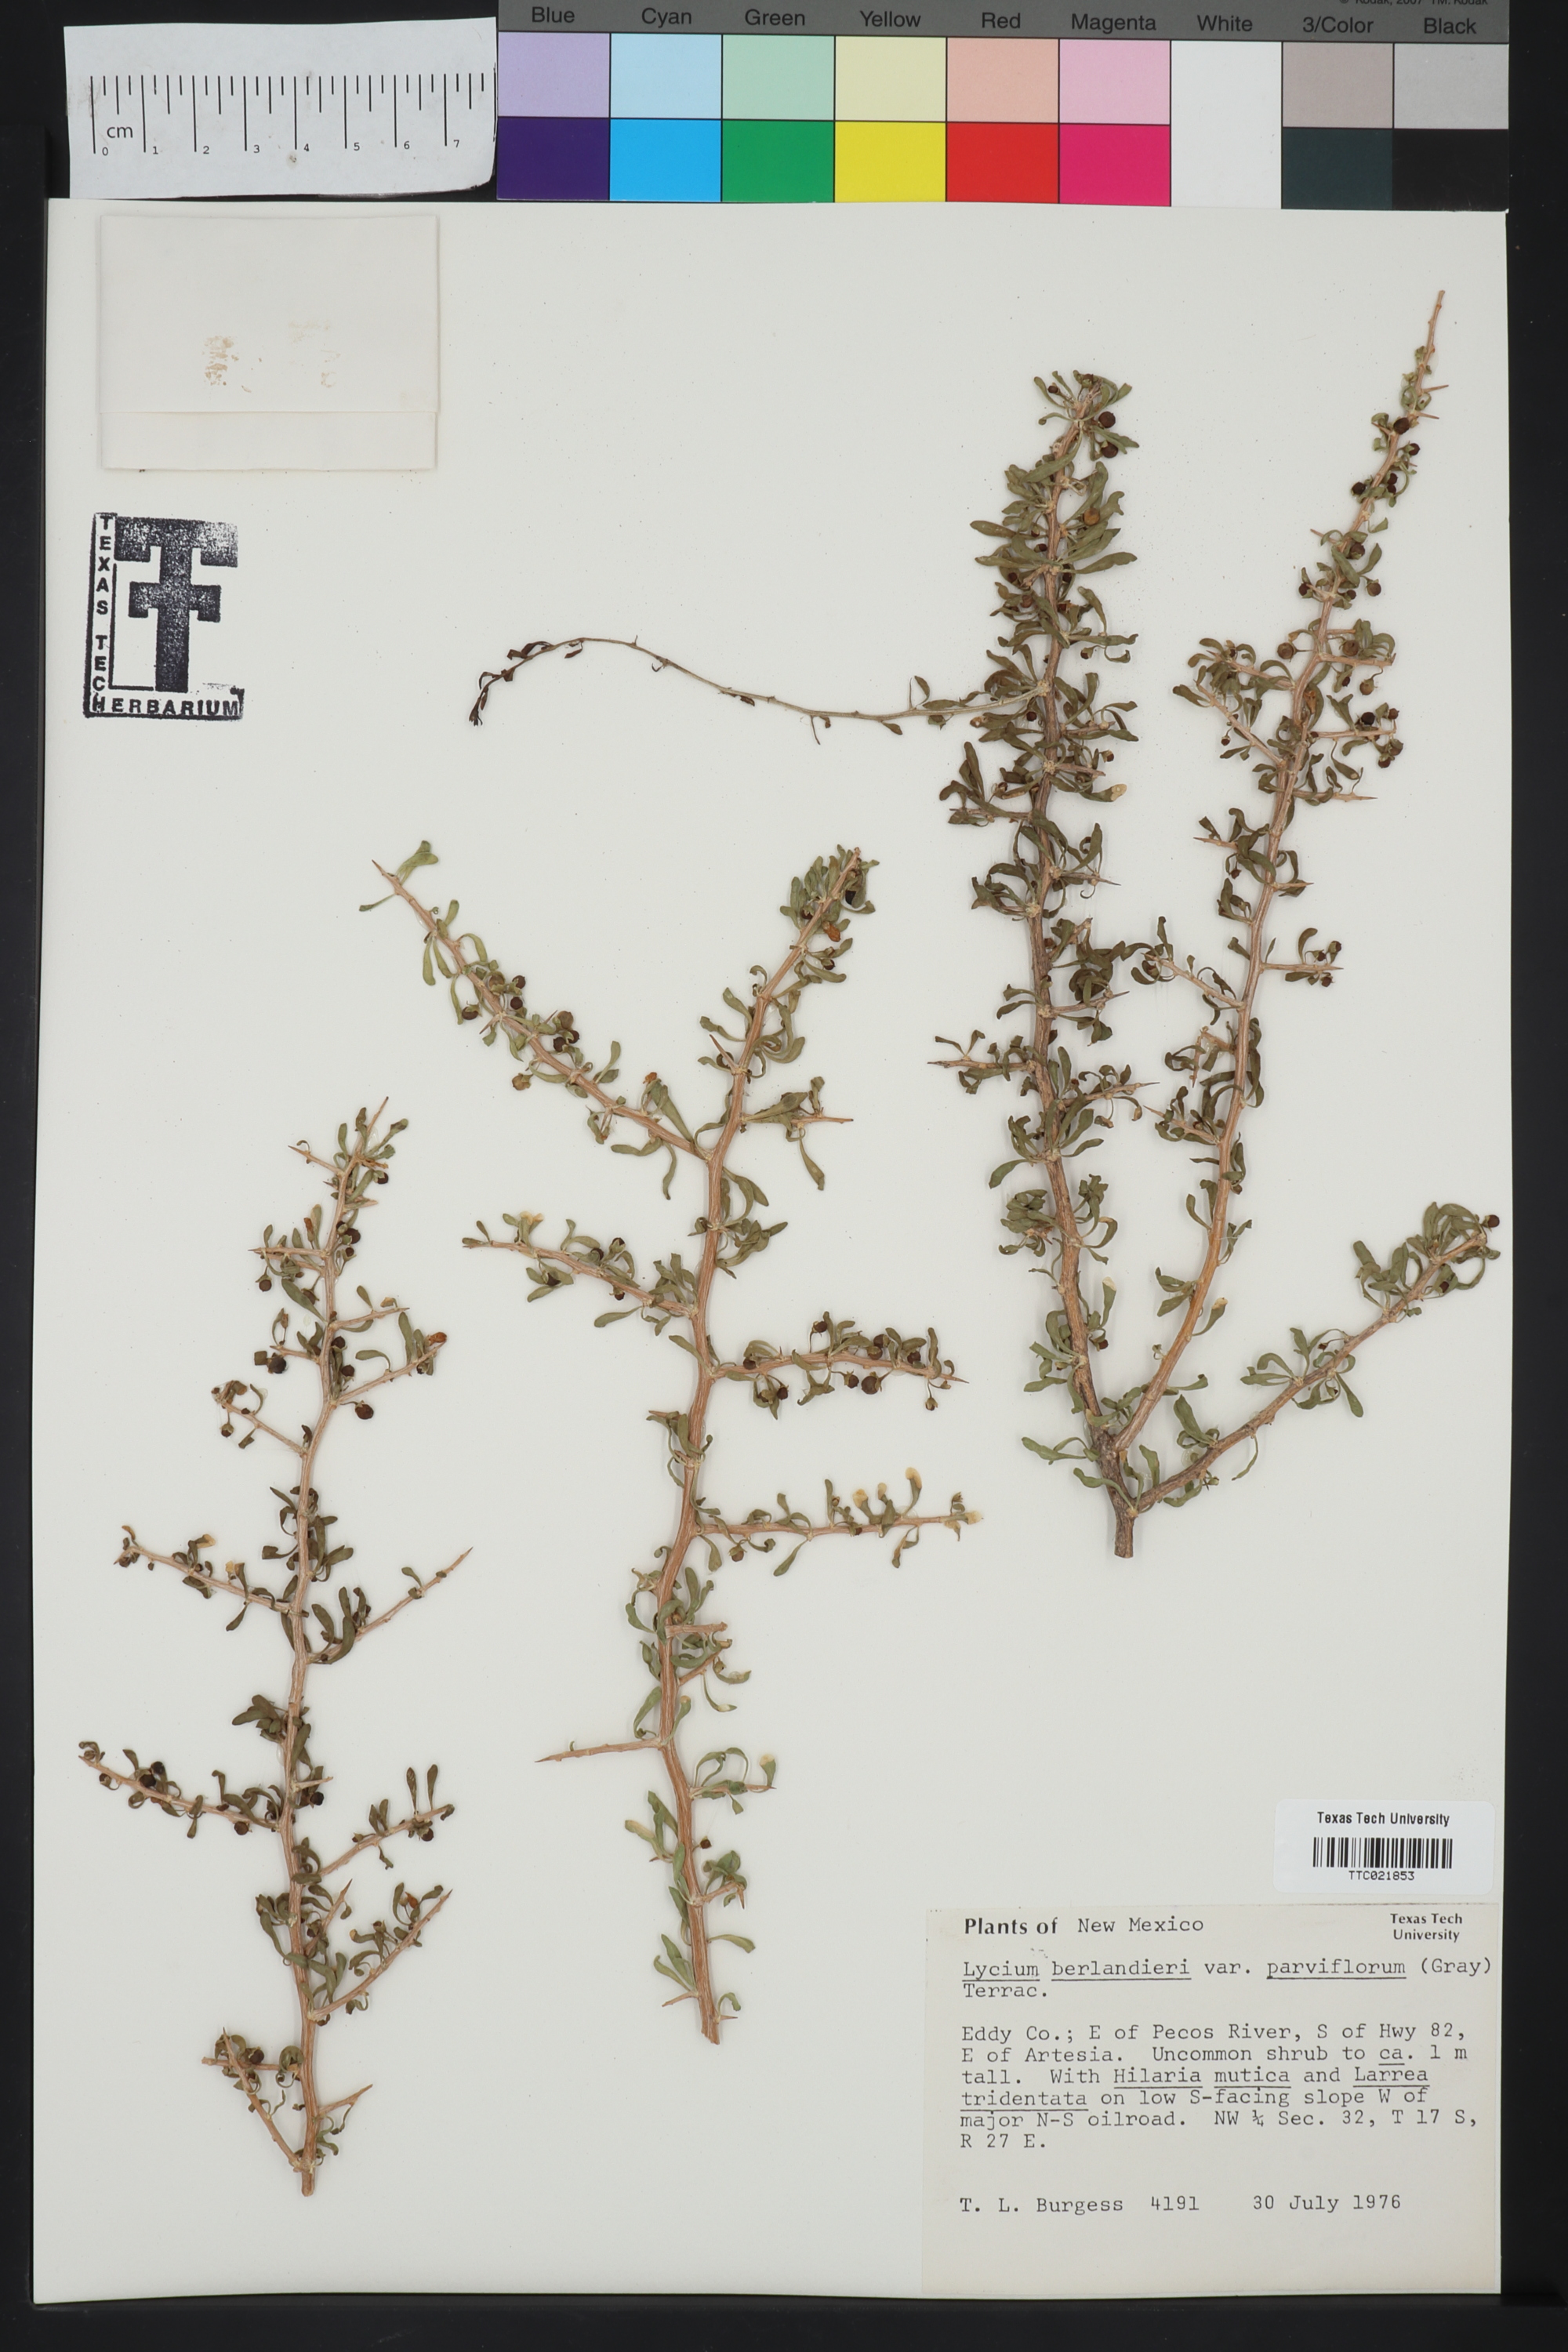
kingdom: Plantae
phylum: Tracheophyta
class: Magnoliopsida
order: Solanales
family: Solanaceae
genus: Lycium
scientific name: Lycium berlandieri
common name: Berlandier wolfberry
